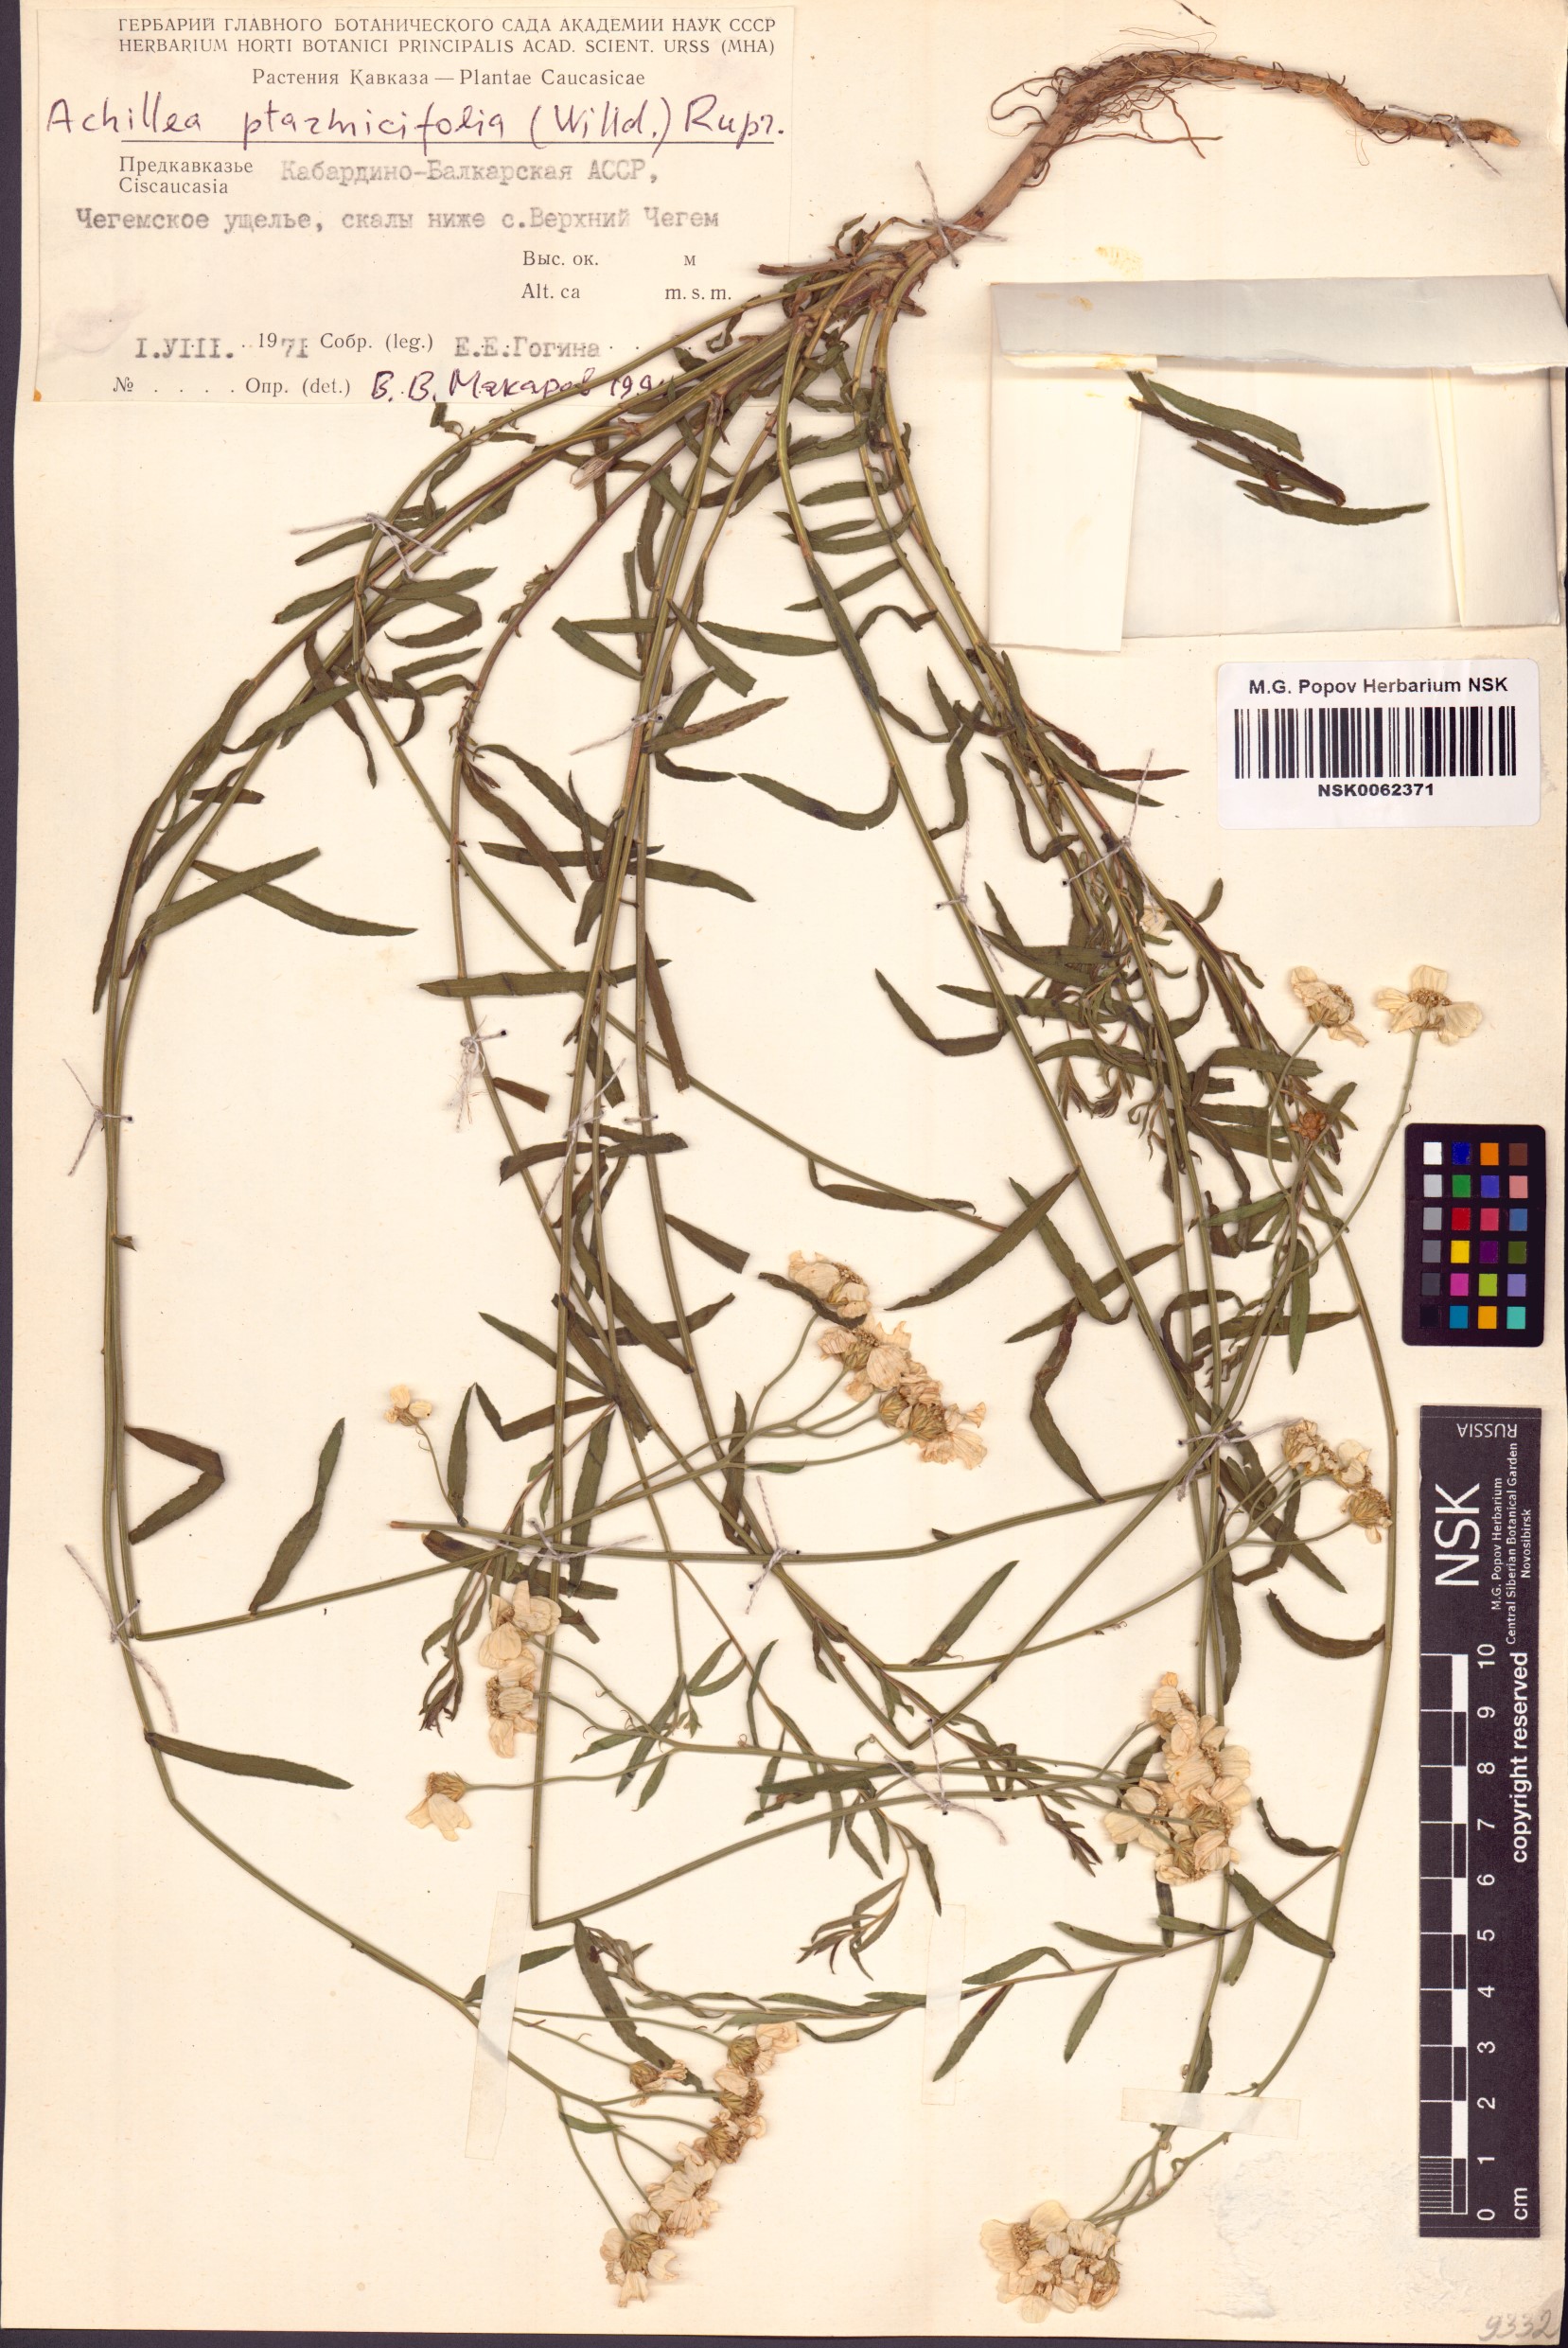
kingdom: Plantae
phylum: Tracheophyta
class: Magnoliopsida
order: Asterales
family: Asteraceae
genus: Achillea
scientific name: Achillea ptarmicifolia
